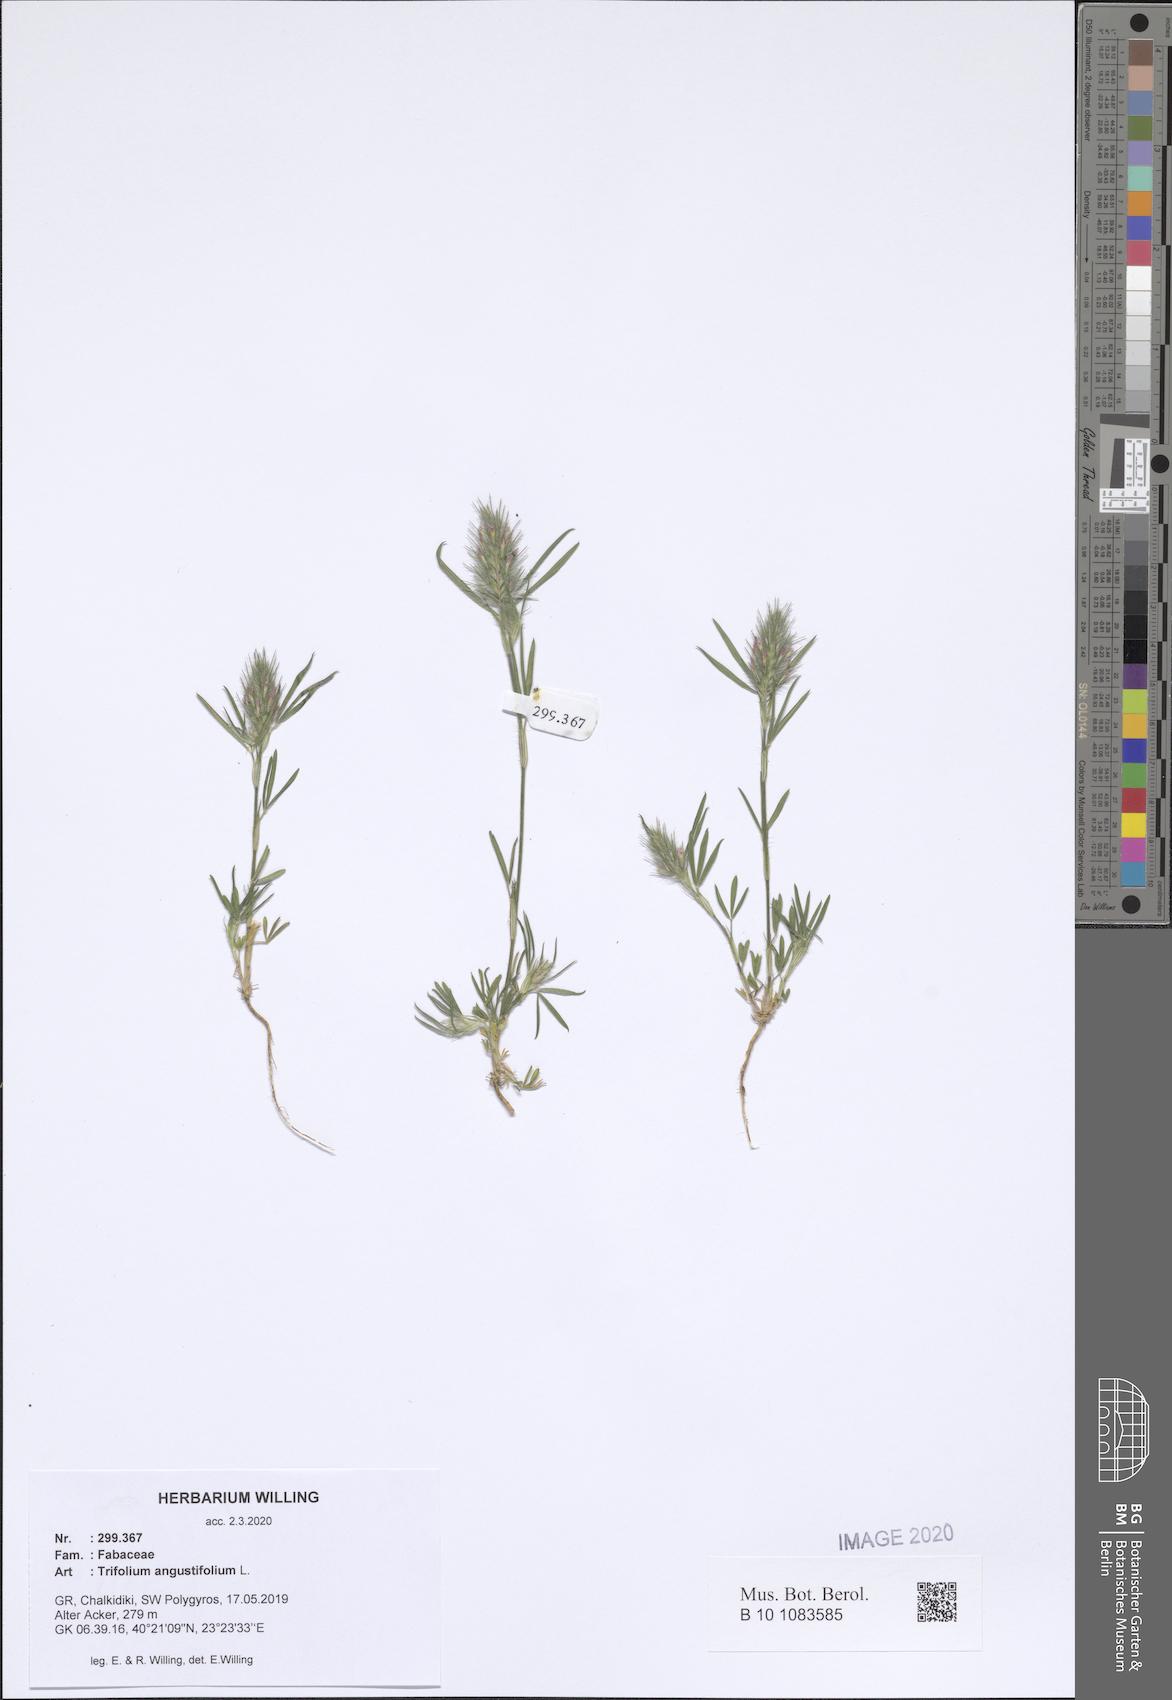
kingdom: Plantae
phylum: Tracheophyta
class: Magnoliopsida
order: Fabales
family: Fabaceae
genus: Trifolium
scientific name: Trifolium angustifolium
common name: Narrow clover
